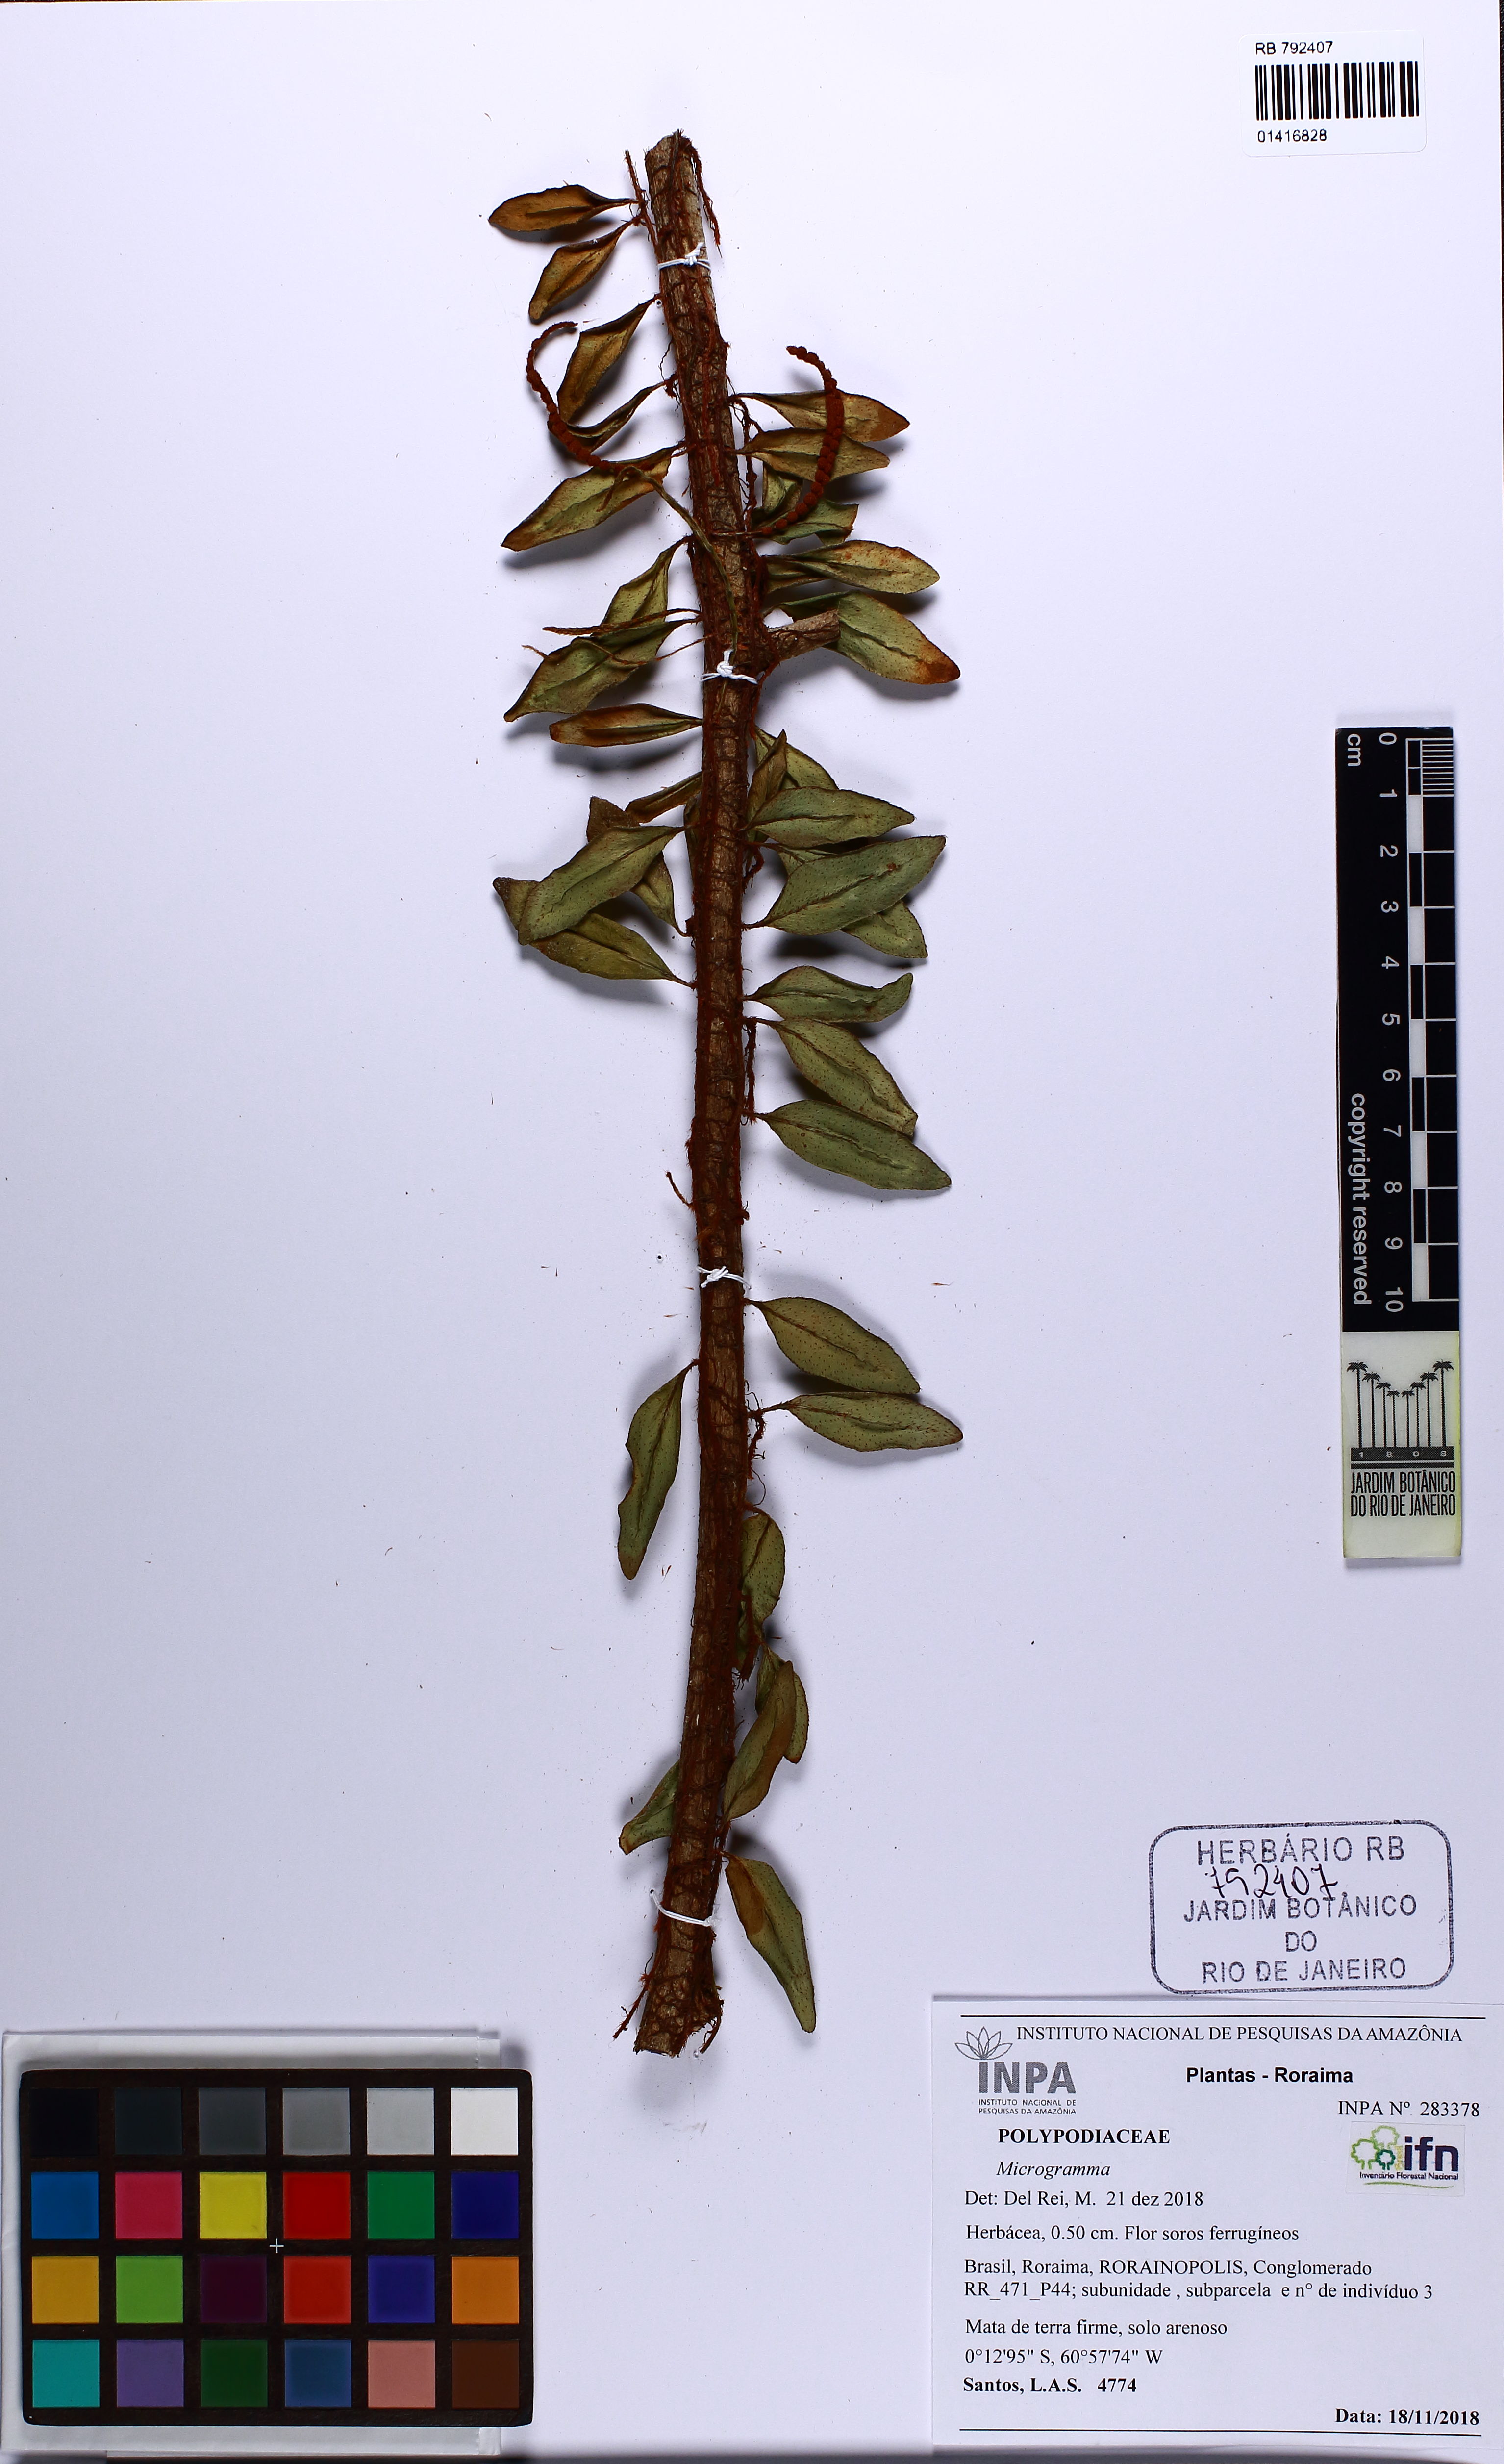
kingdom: Plantae
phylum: Tracheophyta
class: Polypodiopsida
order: Polypodiales
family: Polypodiaceae
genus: Microgramma
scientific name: Microgramma reptans
